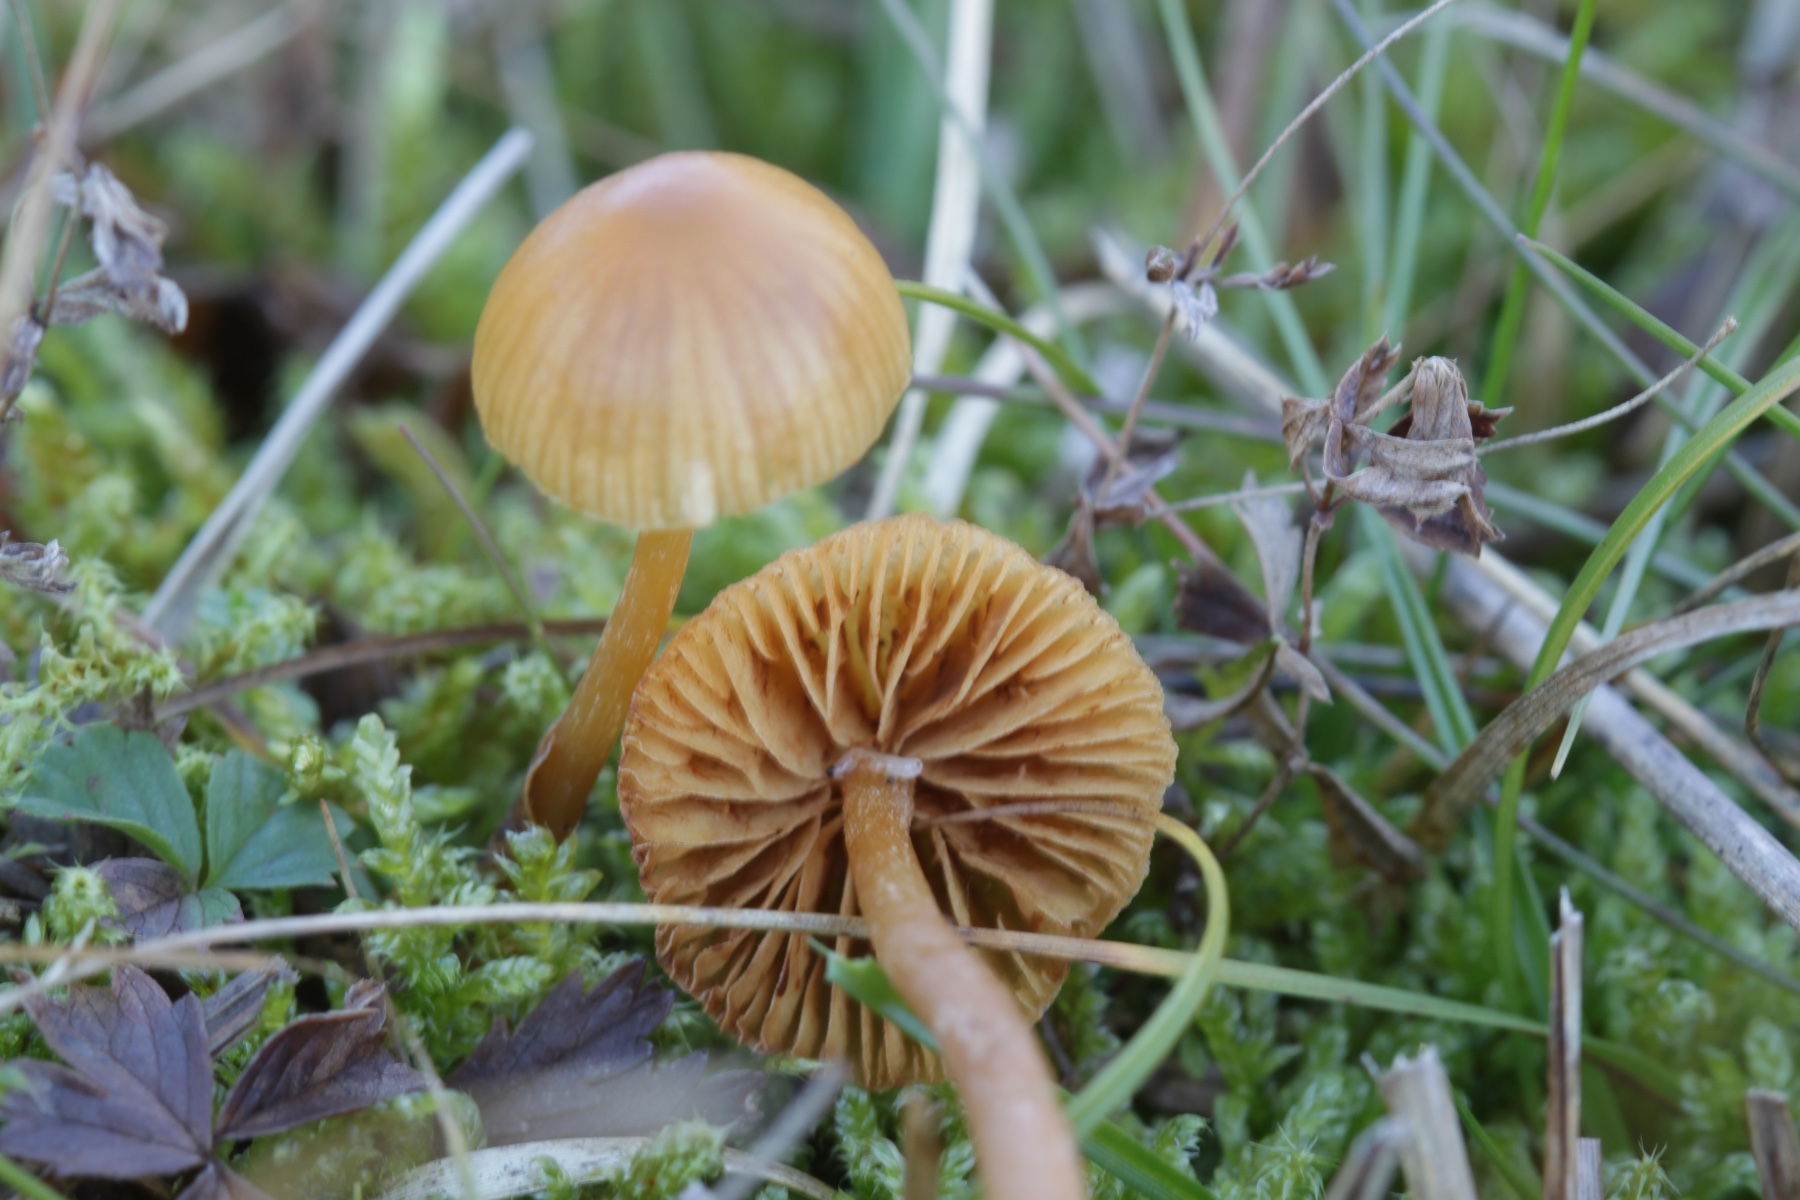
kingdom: Fungi
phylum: Basidiomycota
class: Agaricomycetes
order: Agaricales
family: Hymenogastraceae
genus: Galerina
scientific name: Galerina
